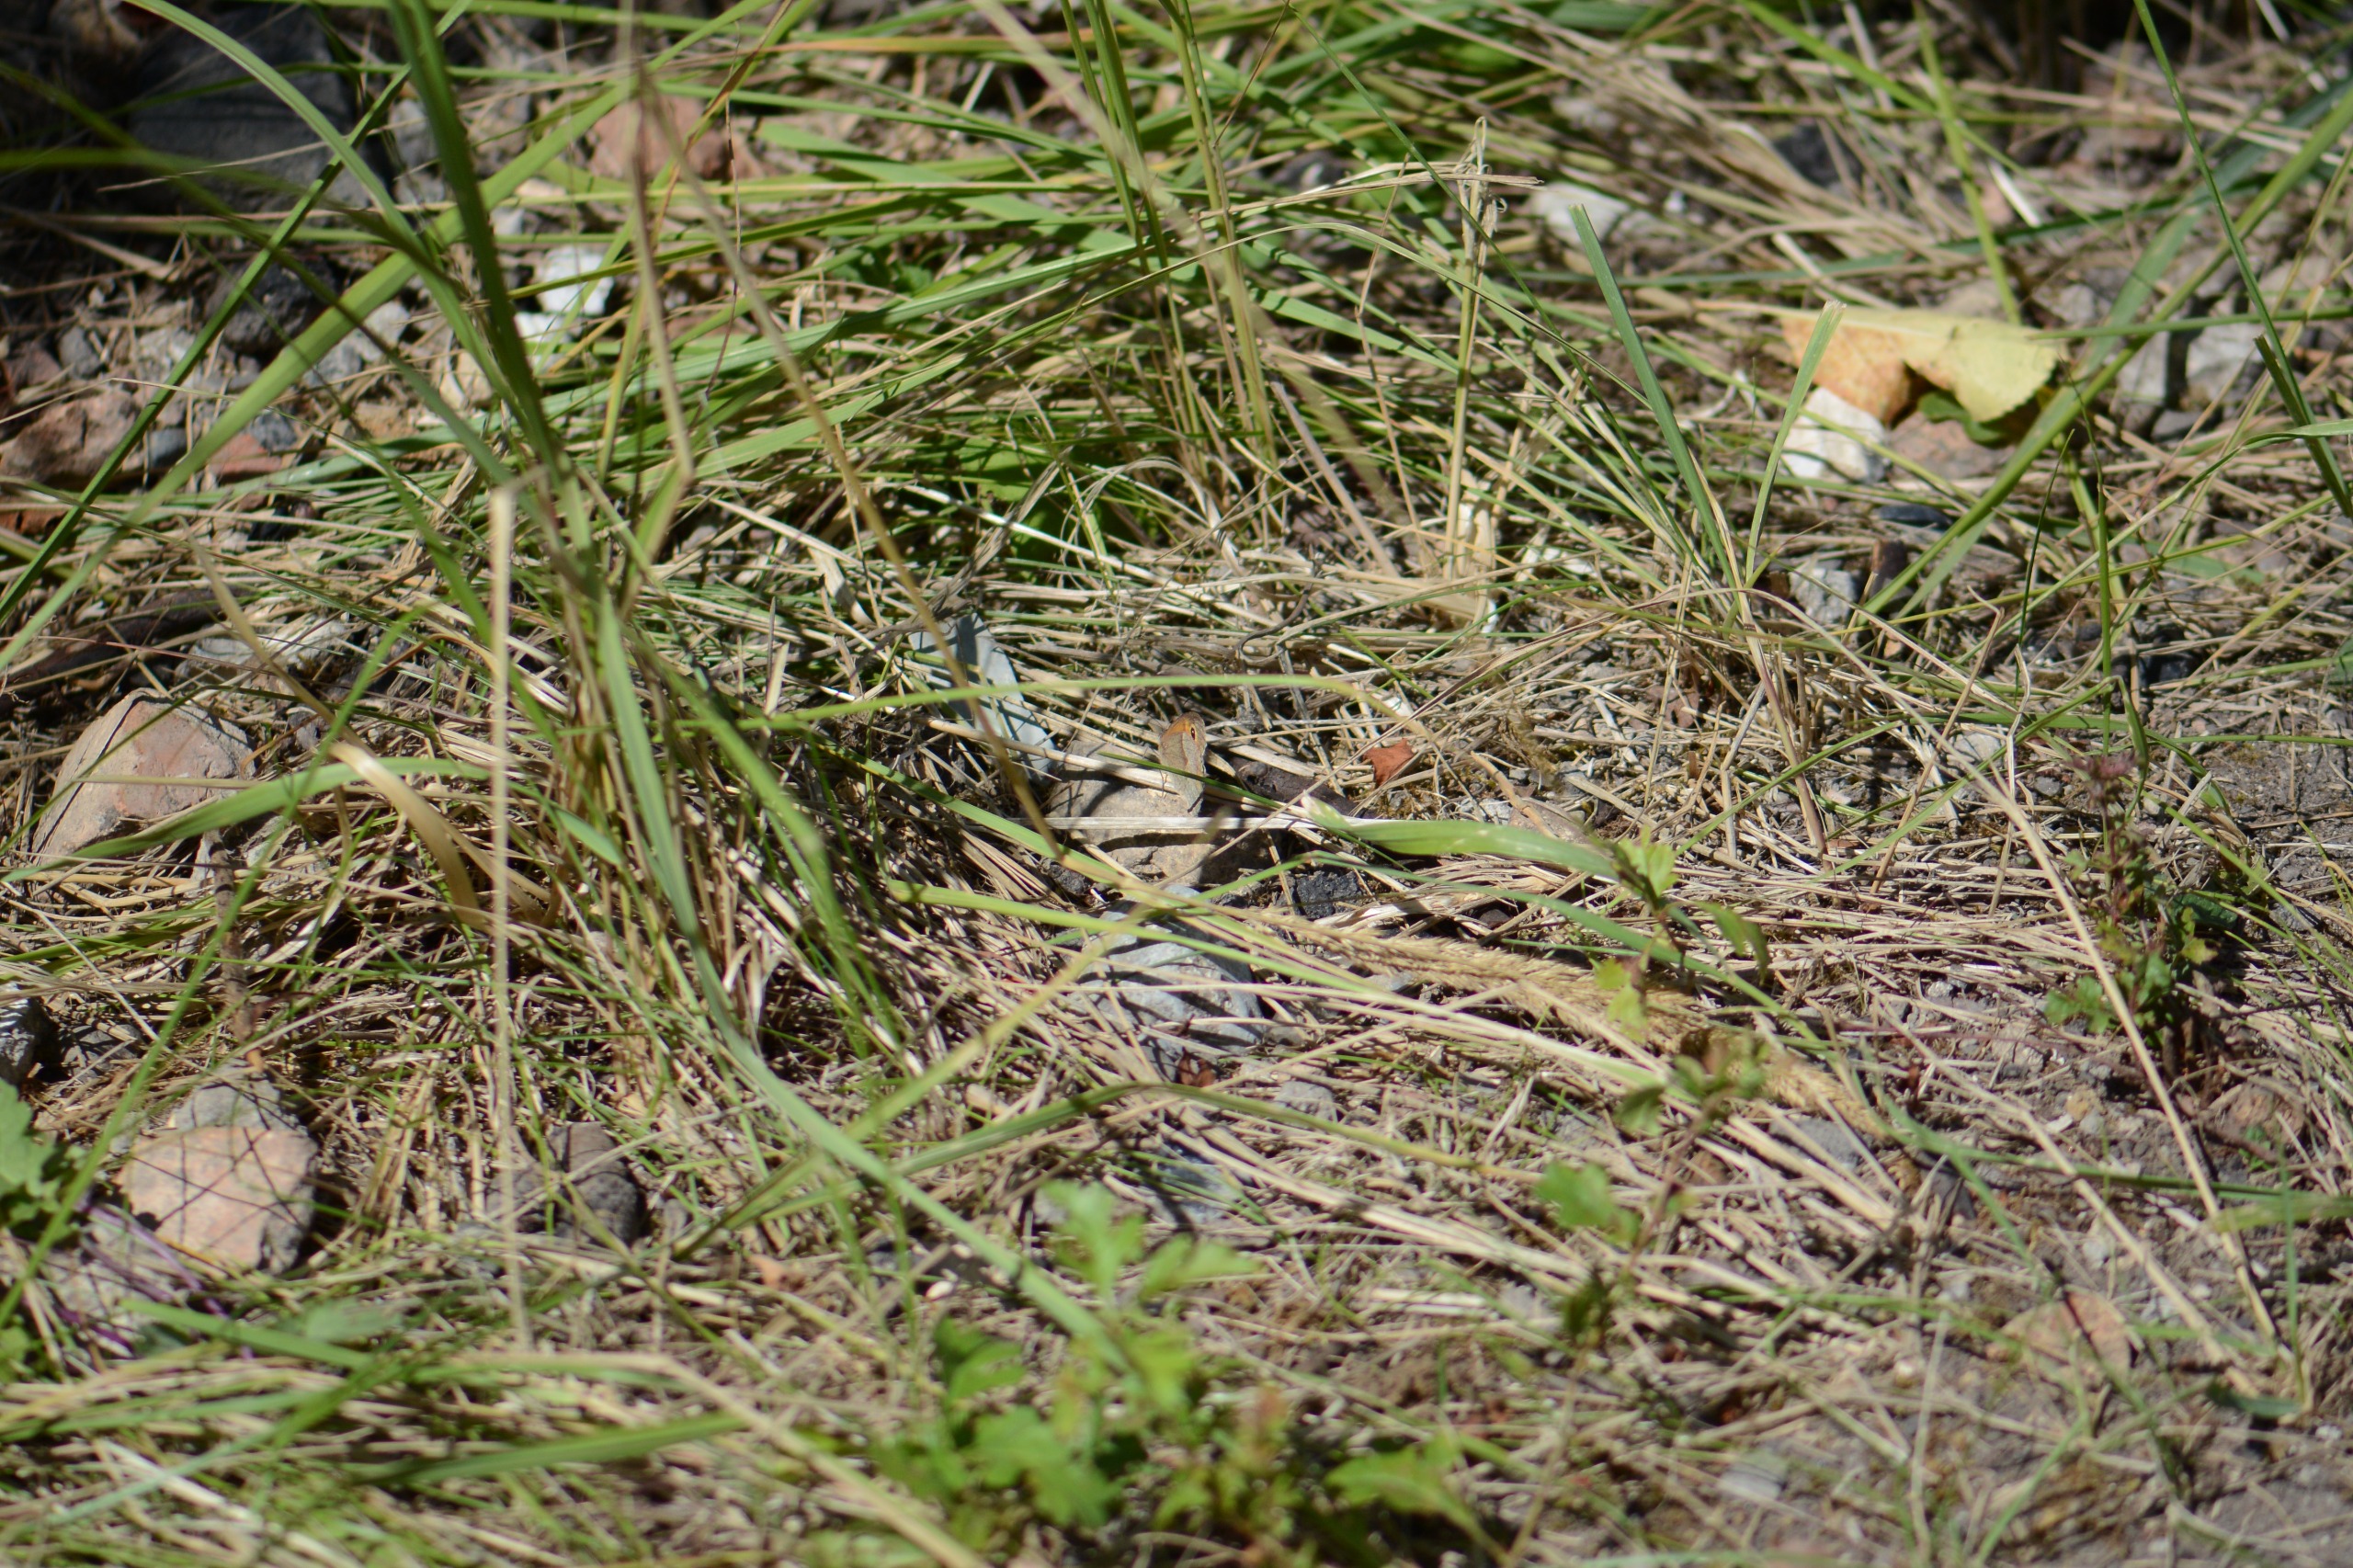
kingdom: Animalia
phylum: Arthropoda
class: Insecta
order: Lepidoptera
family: Nymphalidae
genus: Maniola
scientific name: Maniola jurtina
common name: Græsrandøje
